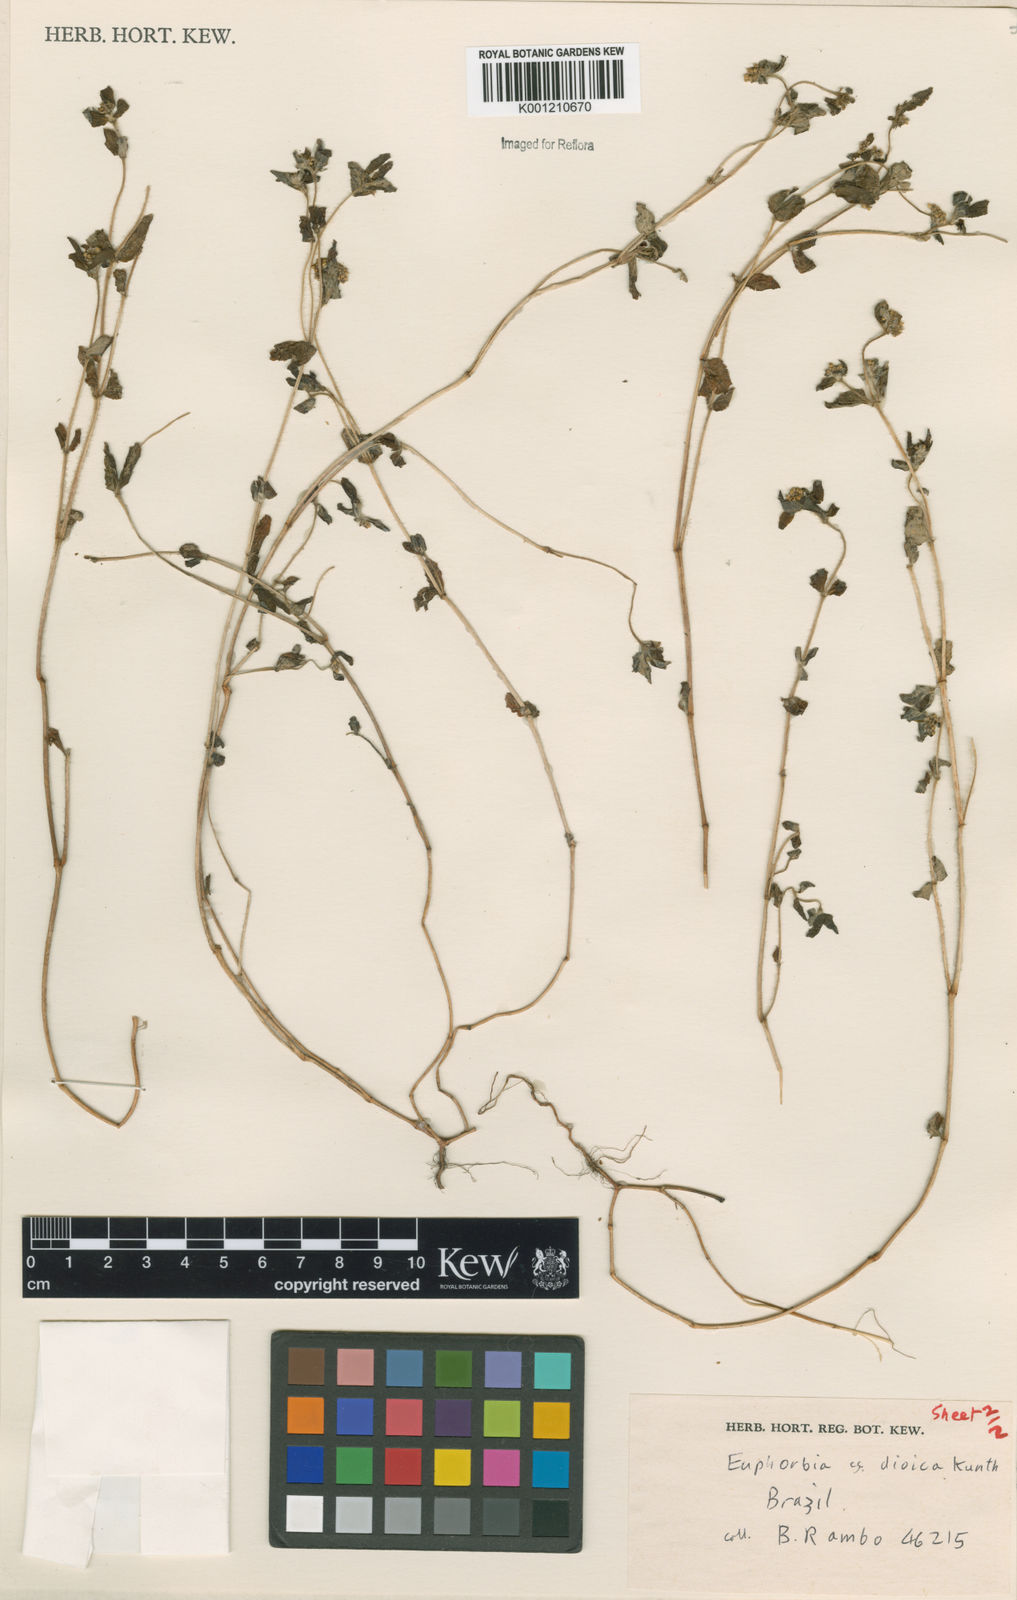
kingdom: Plantae
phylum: Tracheophyta
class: Magnoliopsida
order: Malpighiales
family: Euphorbiaceae
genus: Euphorbia
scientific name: Euphorbia
